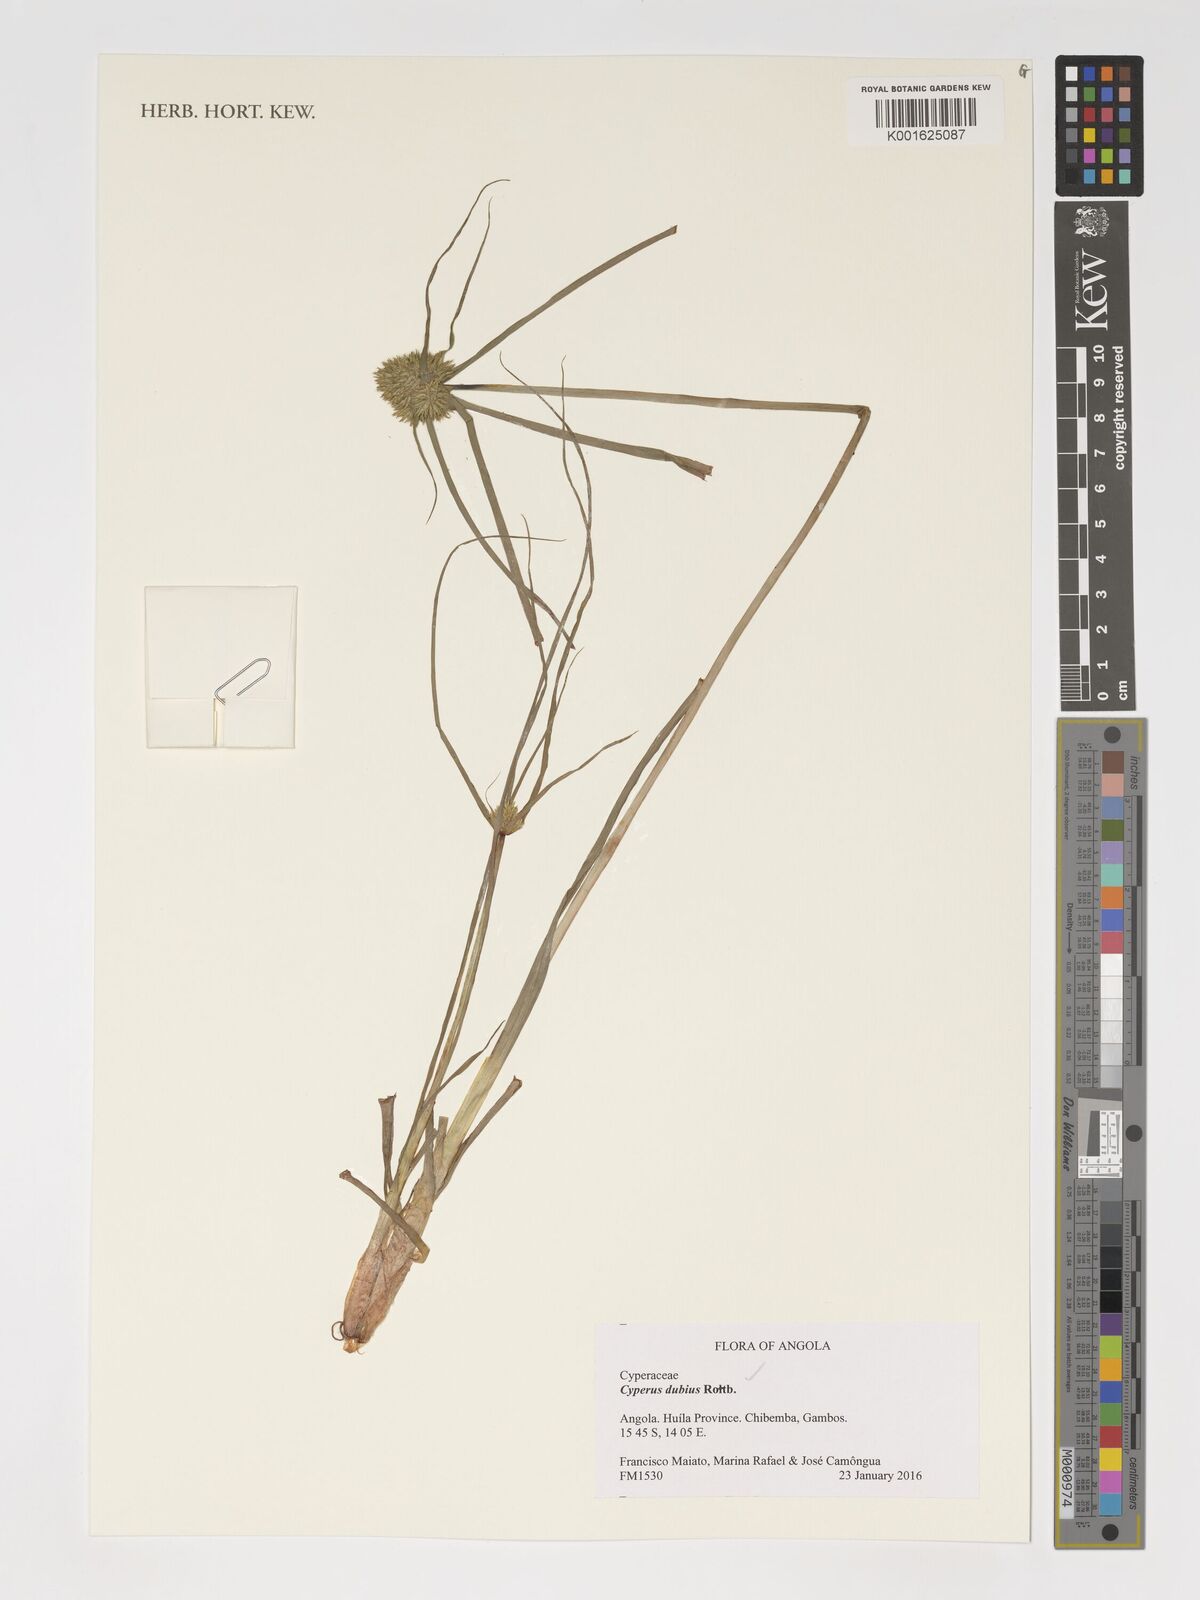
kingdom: Plantae
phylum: Tracheophyta
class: Liliopsida
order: Poales
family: Cyperaceae
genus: Cyperus
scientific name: Cyperus dubius
